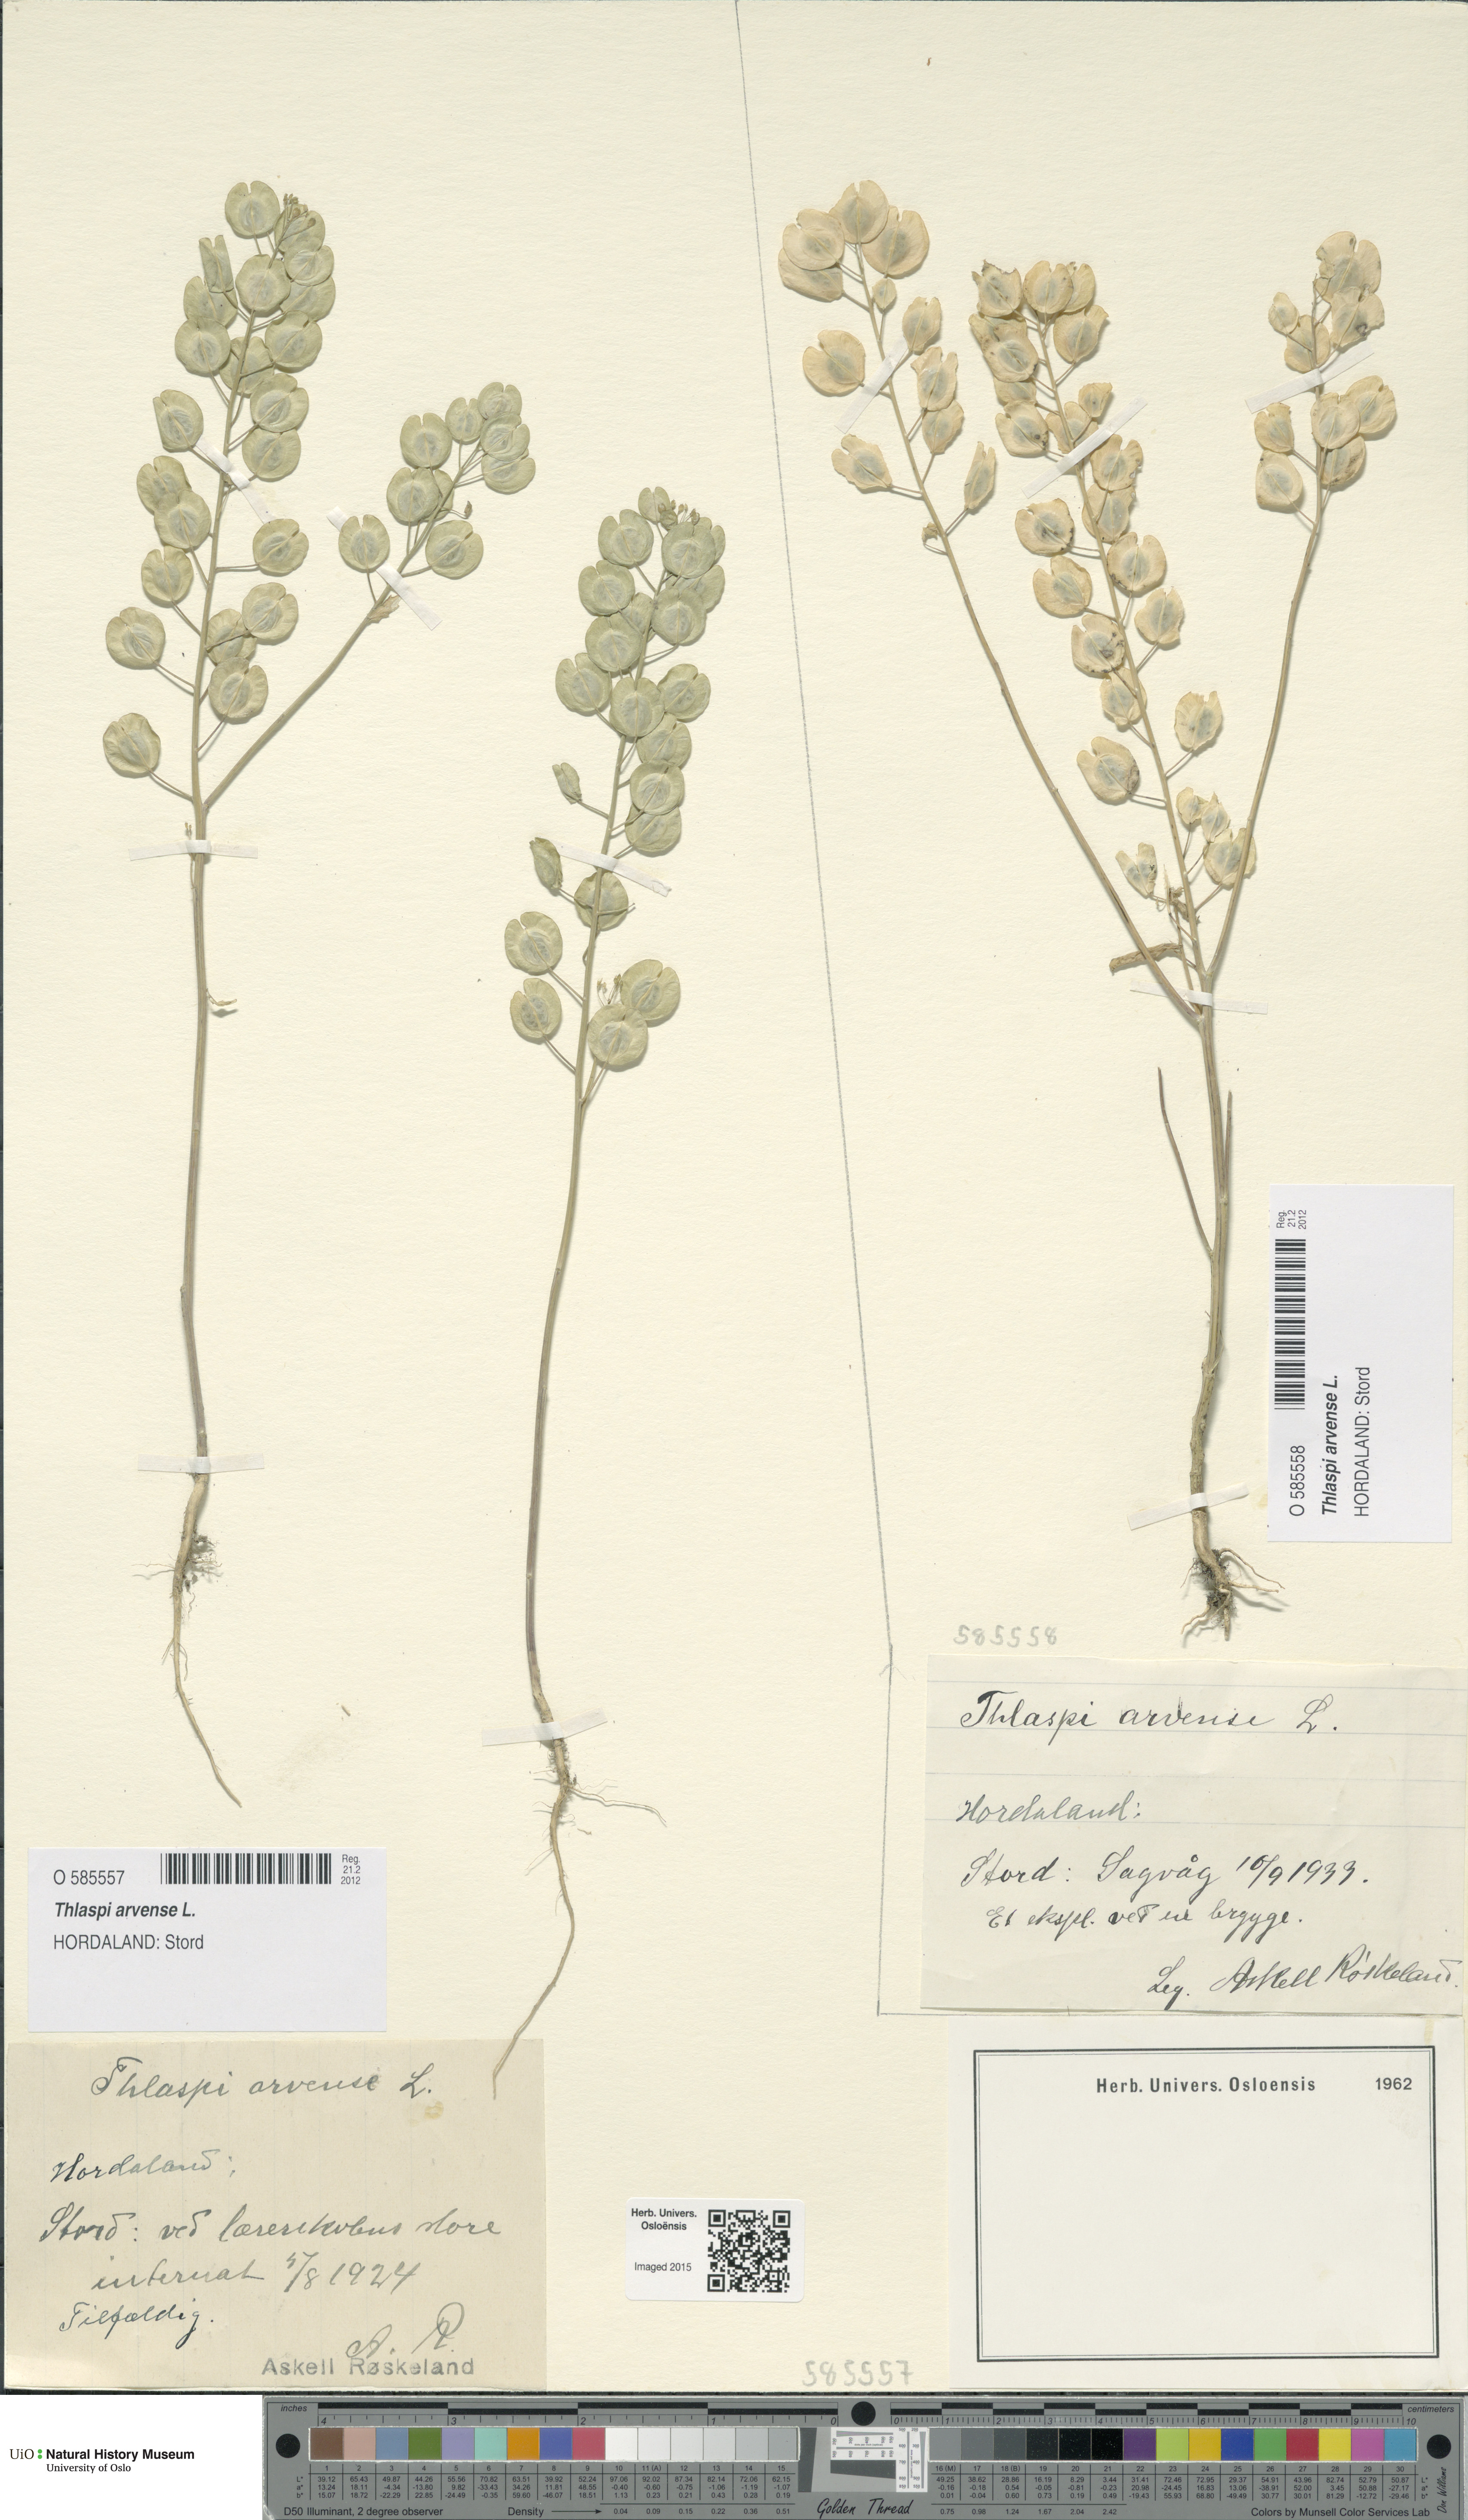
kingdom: Plantae
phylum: Tracheophyta
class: Magnoliopsida
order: Brassicales
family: Brassicaceae
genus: Thlaspi
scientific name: Thlaspi arvense
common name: Field pennycress
